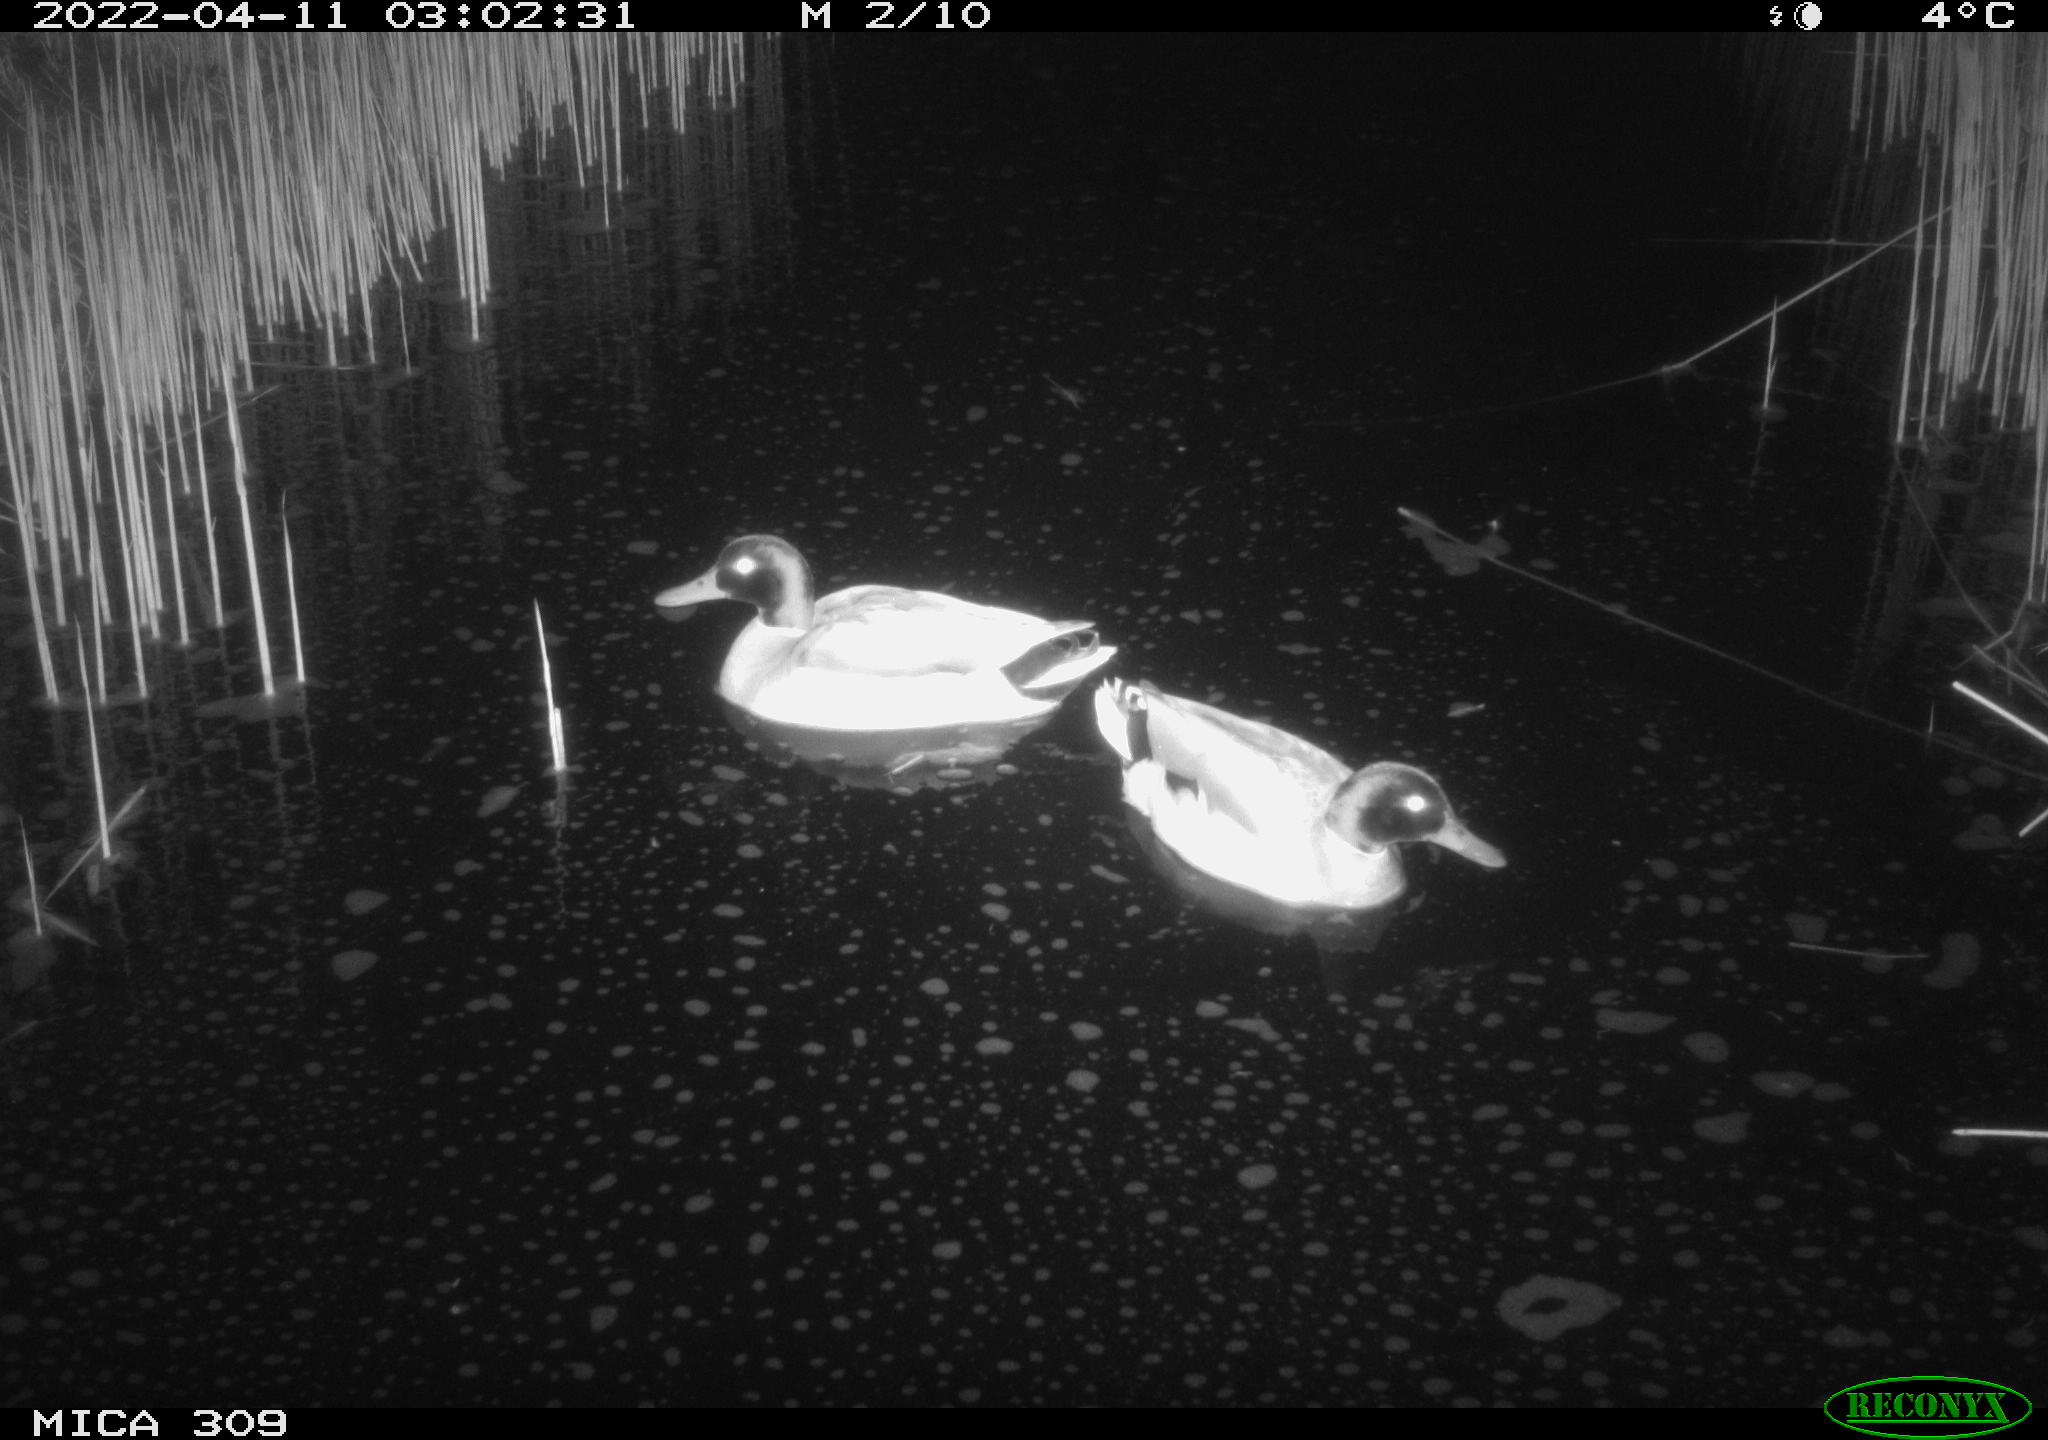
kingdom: Animalia
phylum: Chordata
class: Aves
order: Anseriformes
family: Anatidae
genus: Anas
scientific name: Anas platyrhynchos
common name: Mallard
